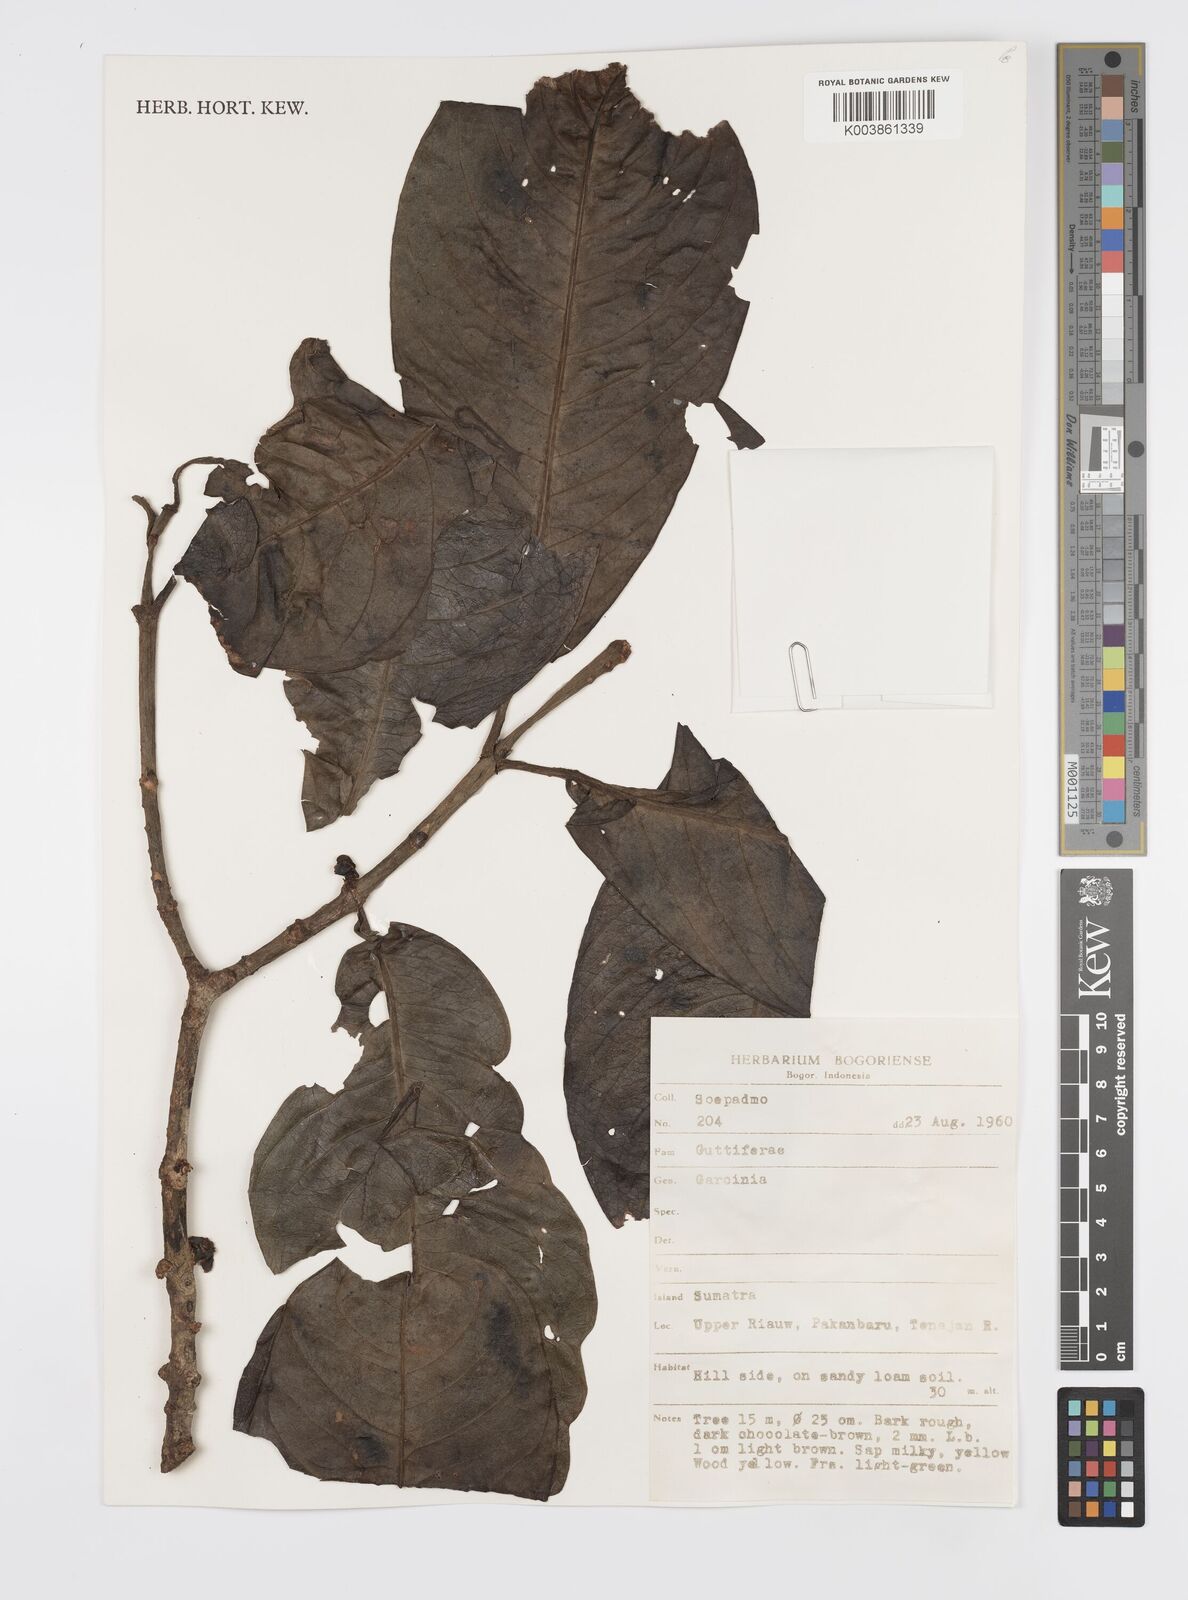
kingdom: Plantae
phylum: Tracheophyta
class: Magnoliopsida
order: Malpighiales
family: Clusiaceae
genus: Garcinia
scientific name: Garcinia
